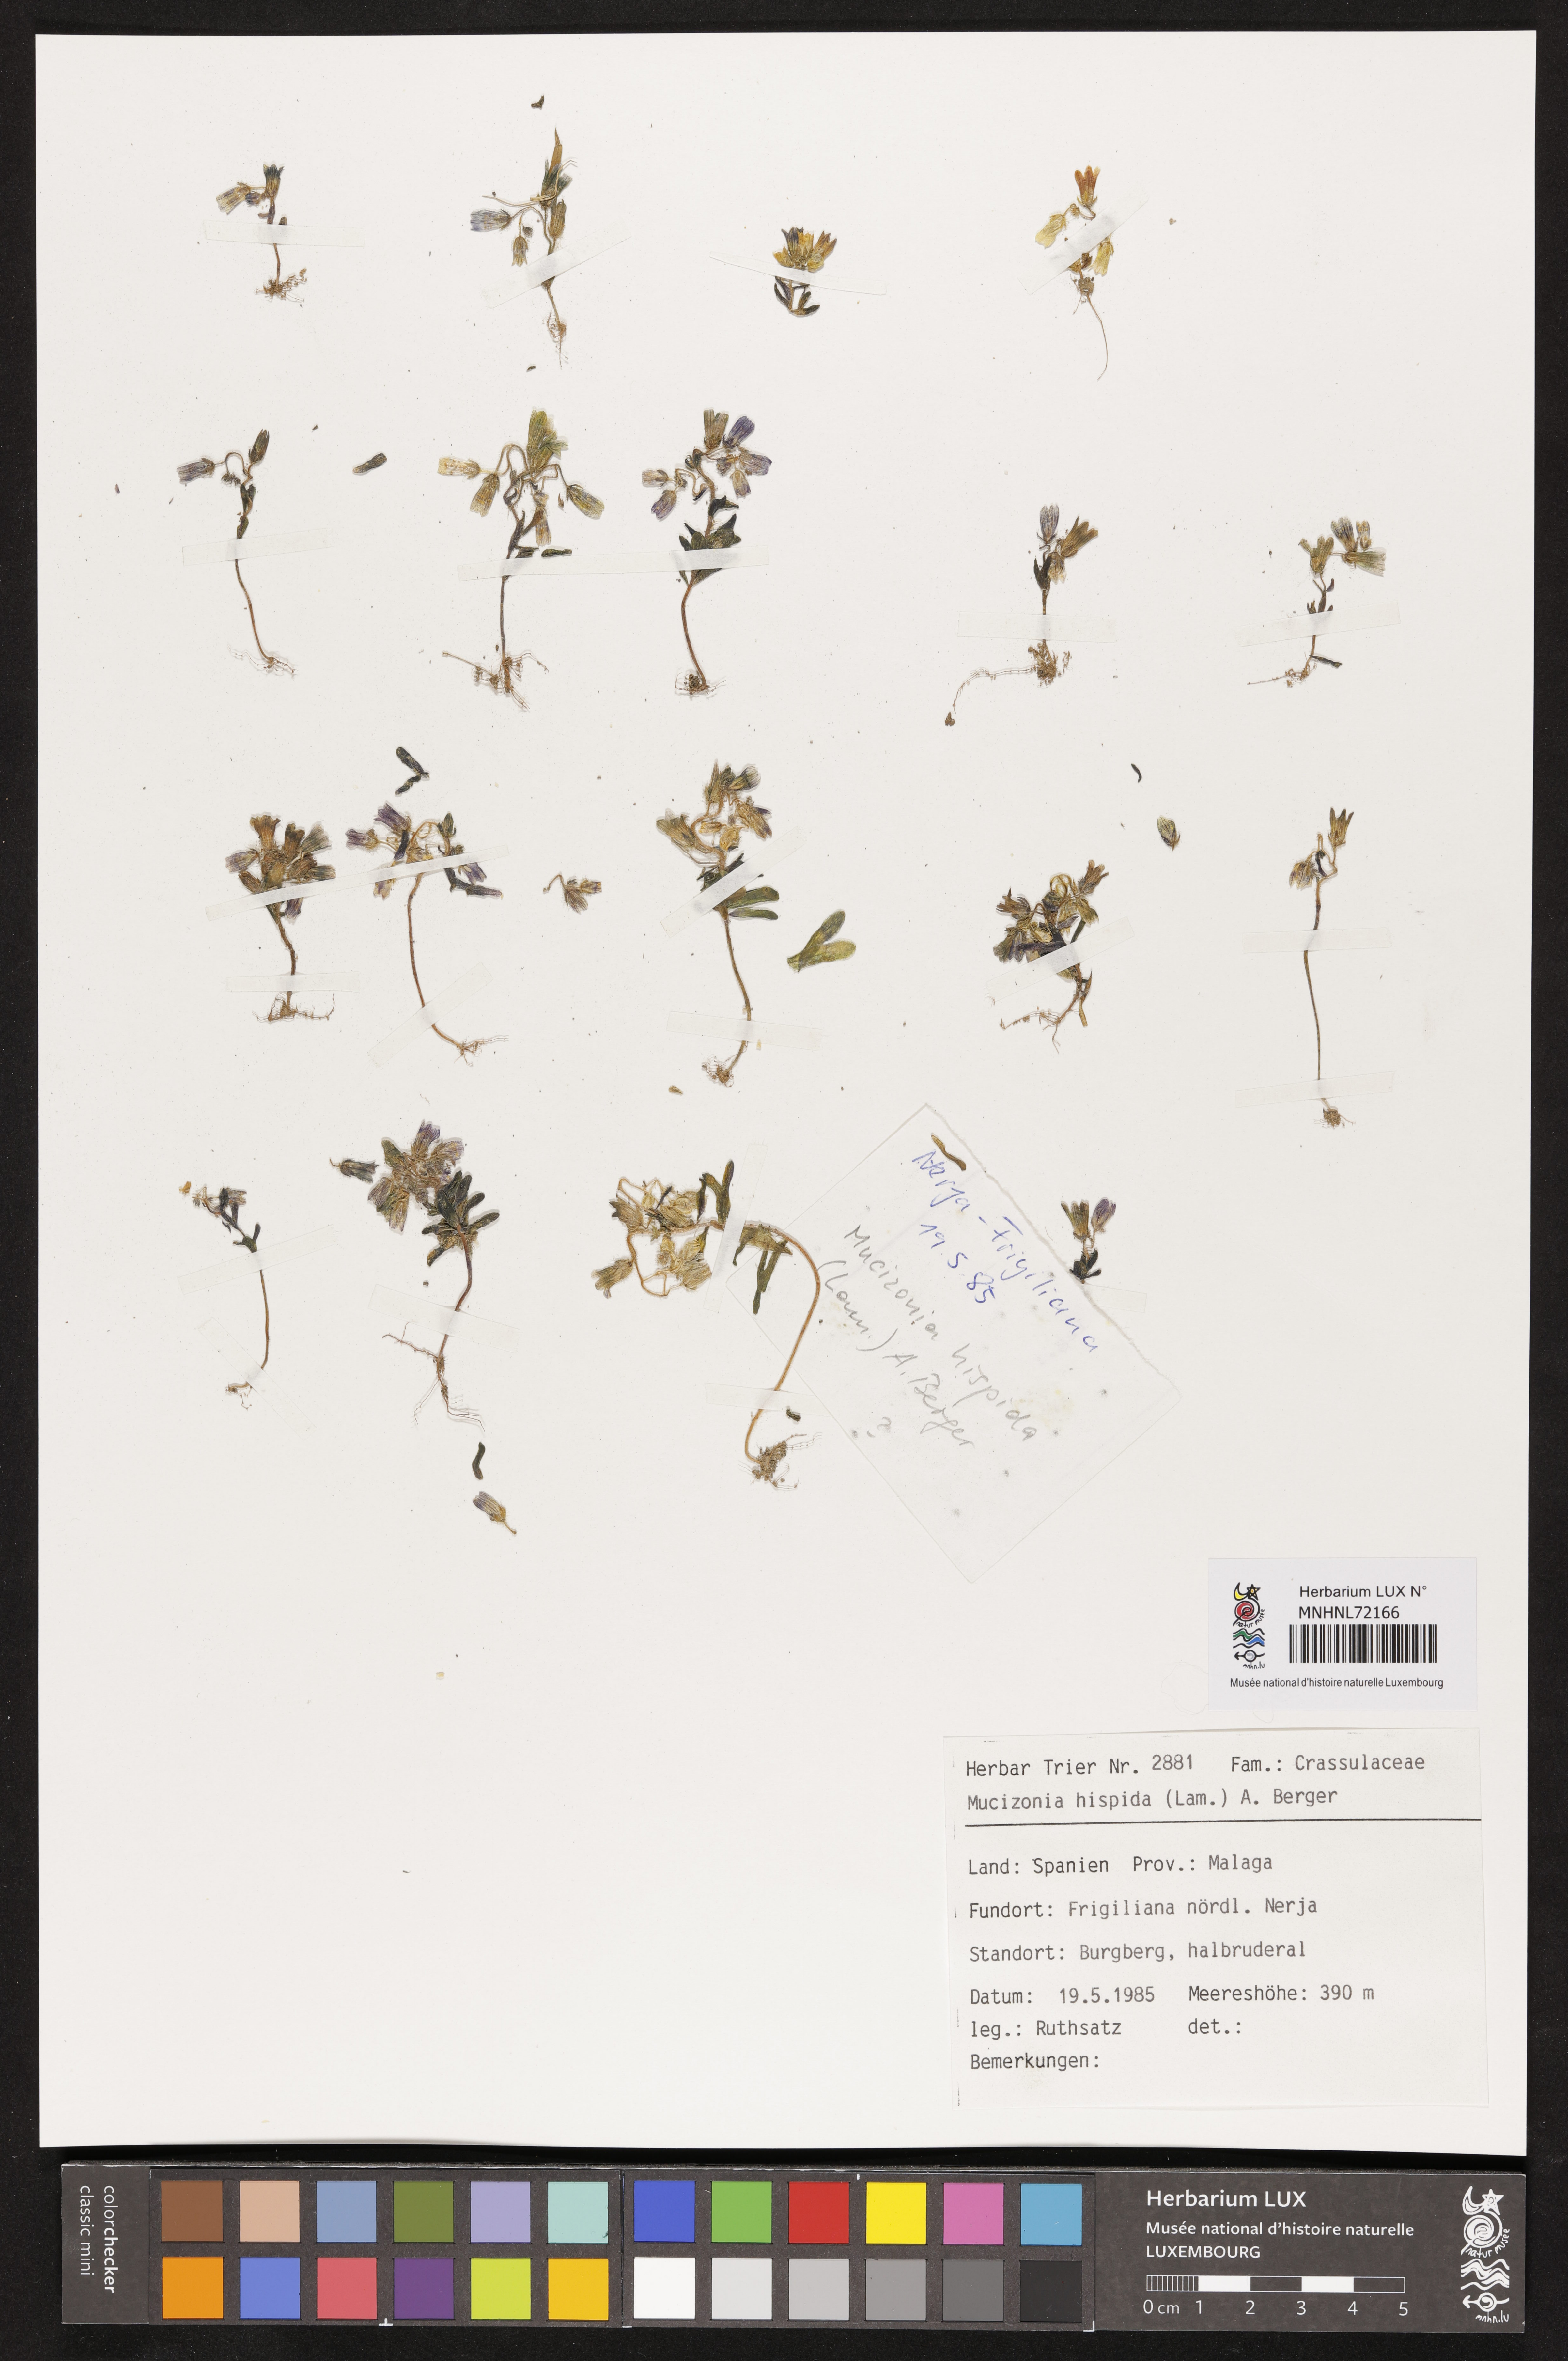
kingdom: Plantae
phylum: Tracheophyta
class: Magnoliopsida
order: Saxifragales
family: Crassulaceae
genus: Sedum
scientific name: Sedum mucizonia
